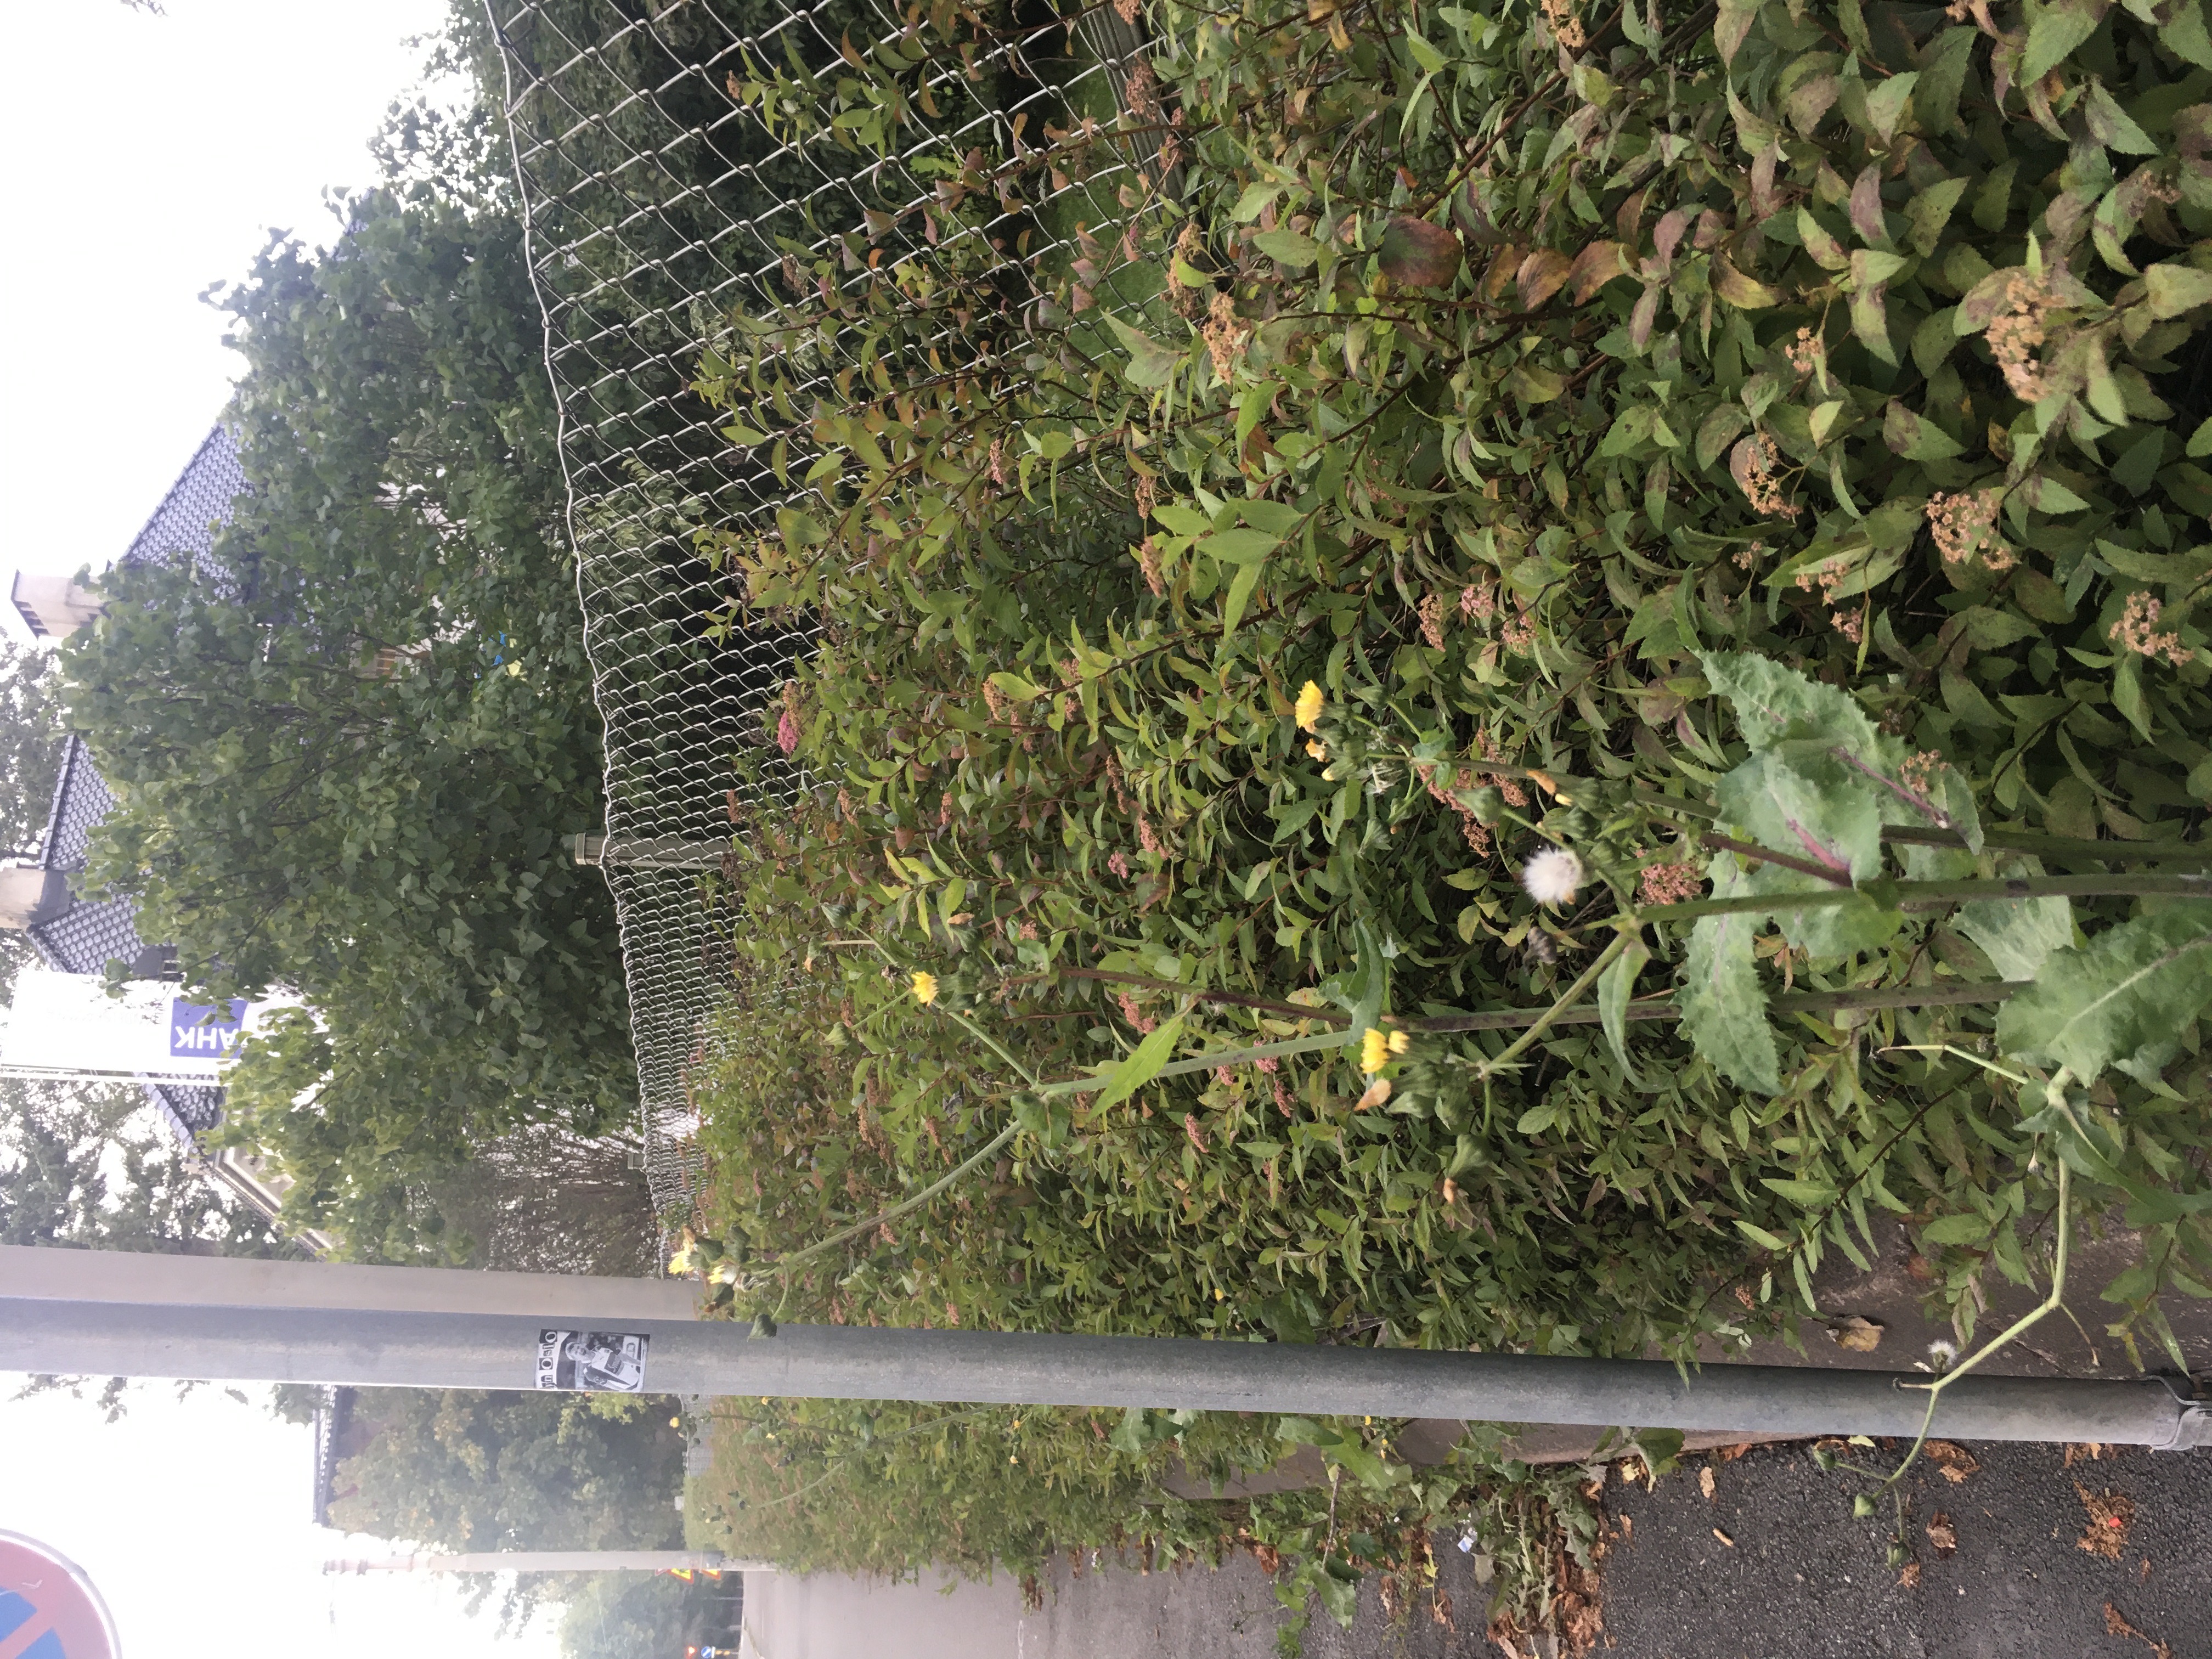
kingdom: Plantae
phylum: Tracheophyta
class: Magnoliopsida
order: Rosales
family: Rosaceae
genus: Spiraea
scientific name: Spiraea japonica
